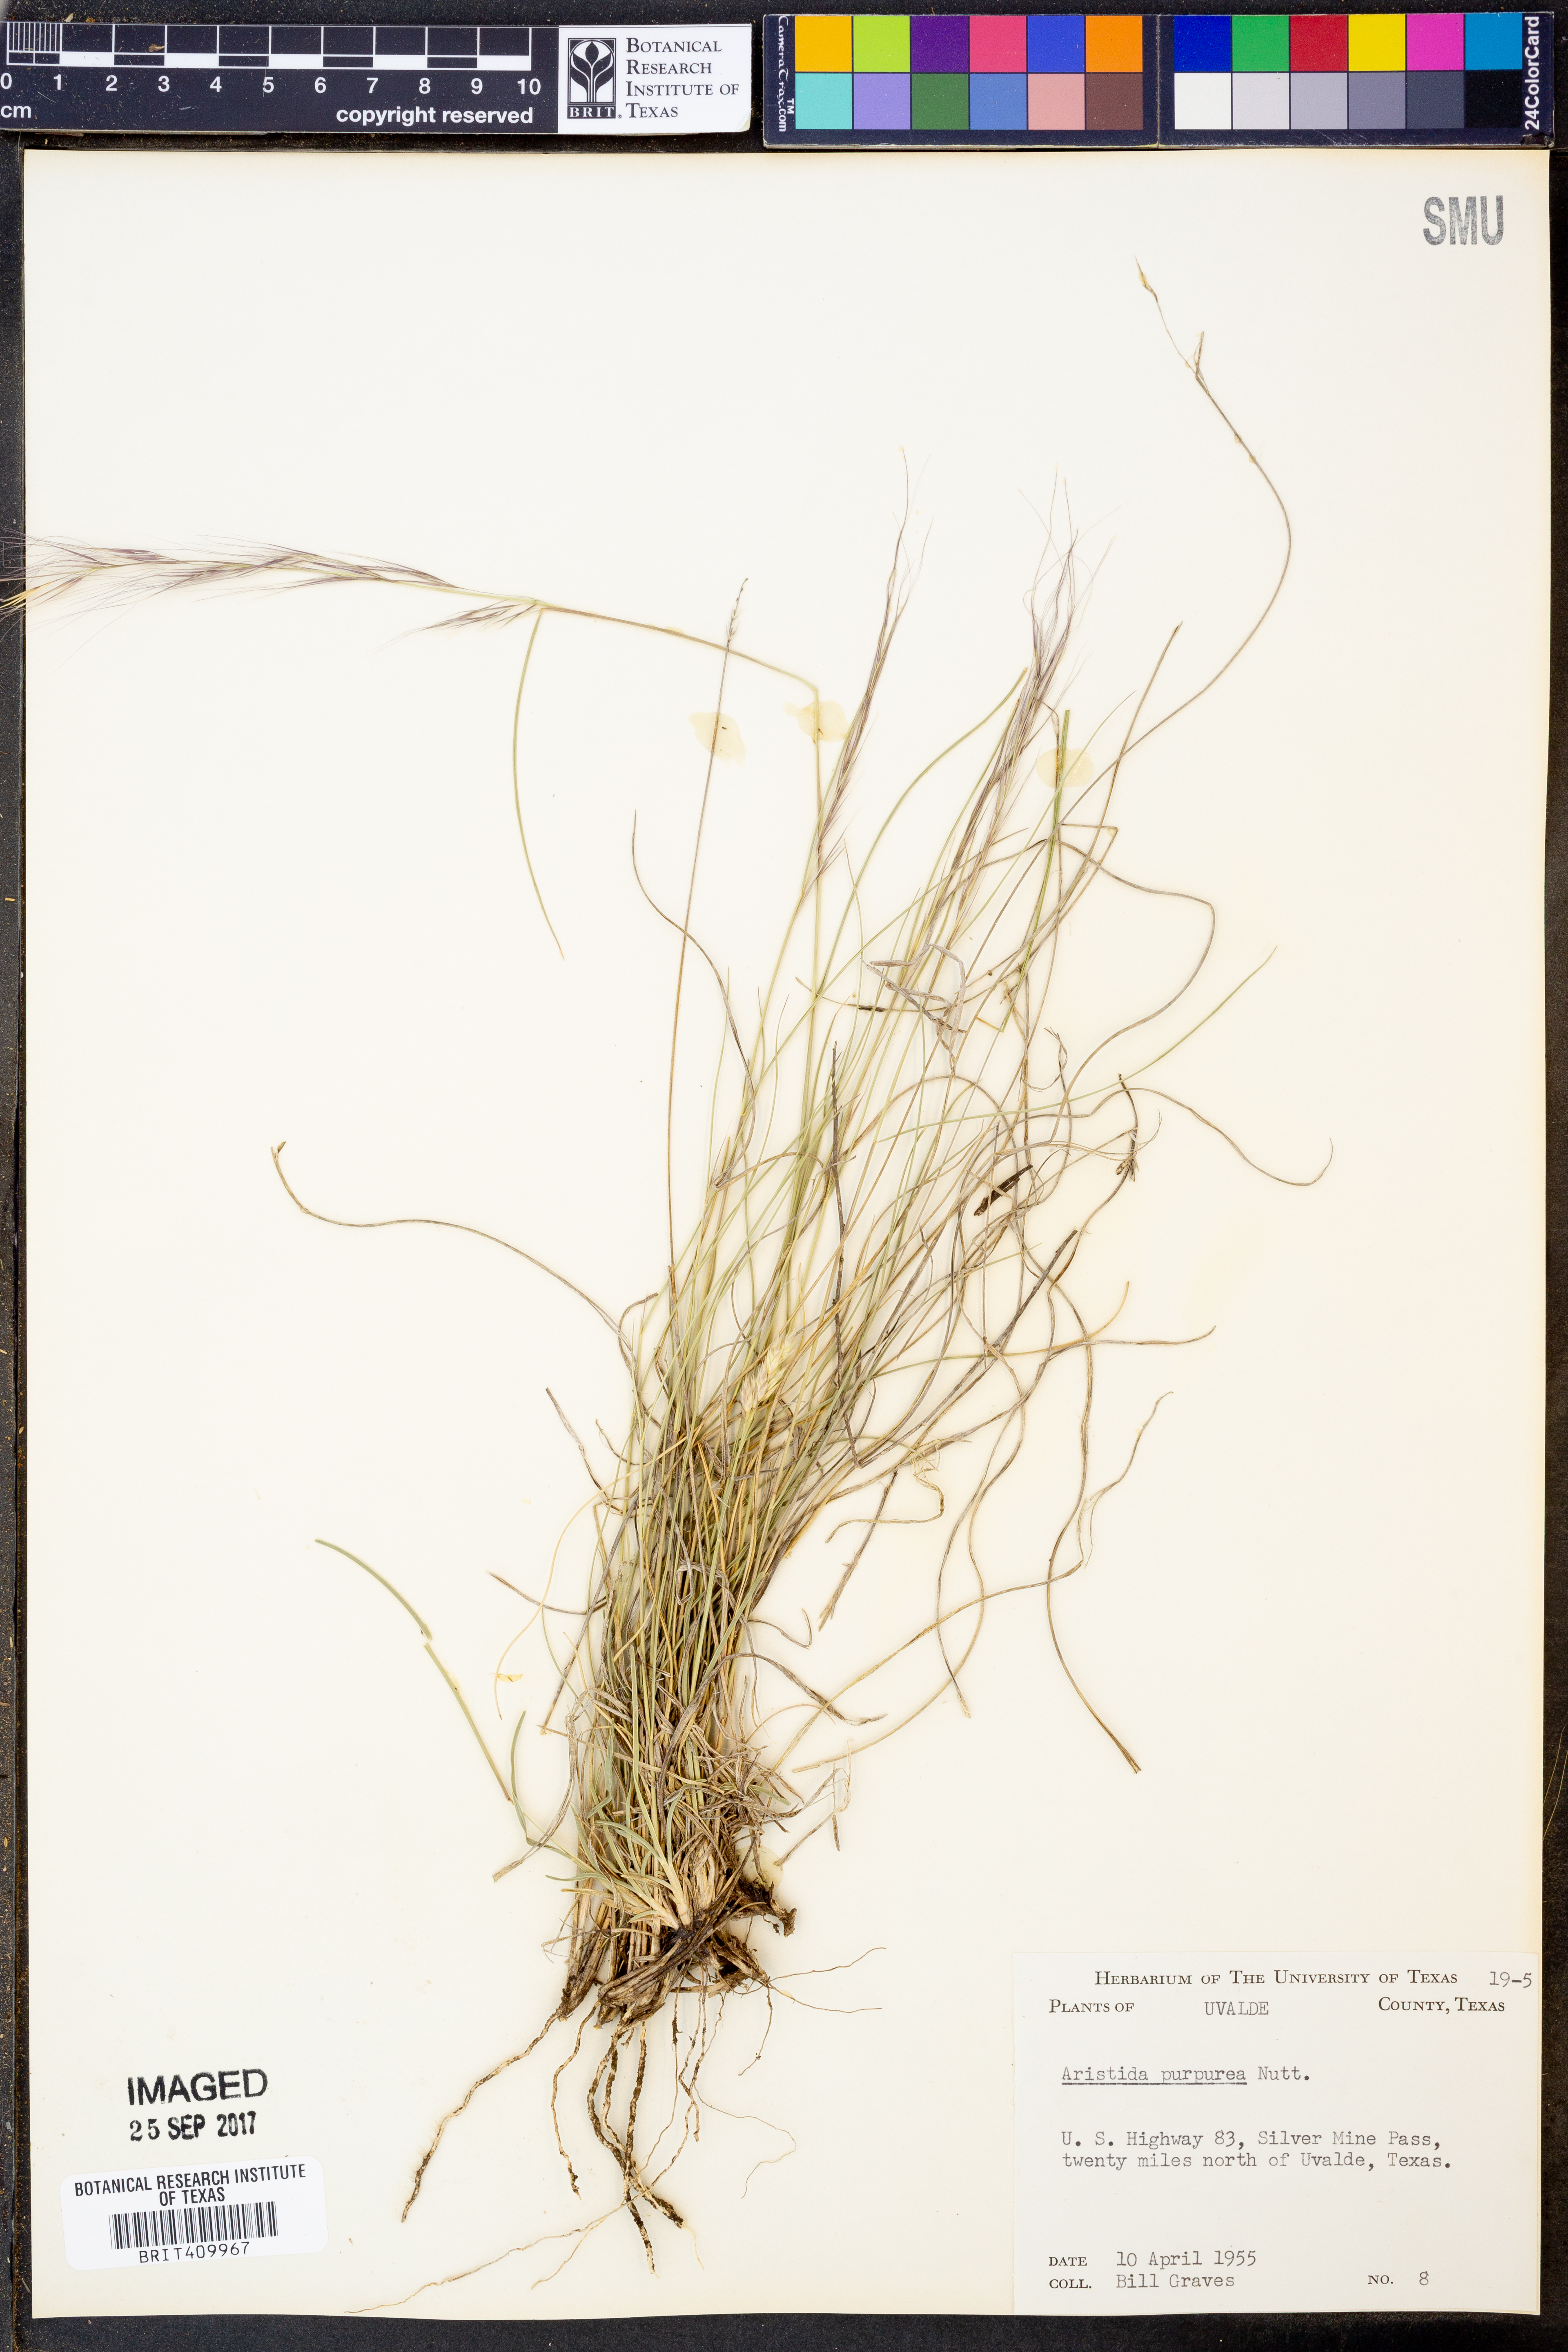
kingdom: Plantae
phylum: Tracheophyta
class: Liliopsida
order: Poales
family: Poaceae
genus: Aristida
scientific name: Aristida purpurea
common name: Purple threeawn
